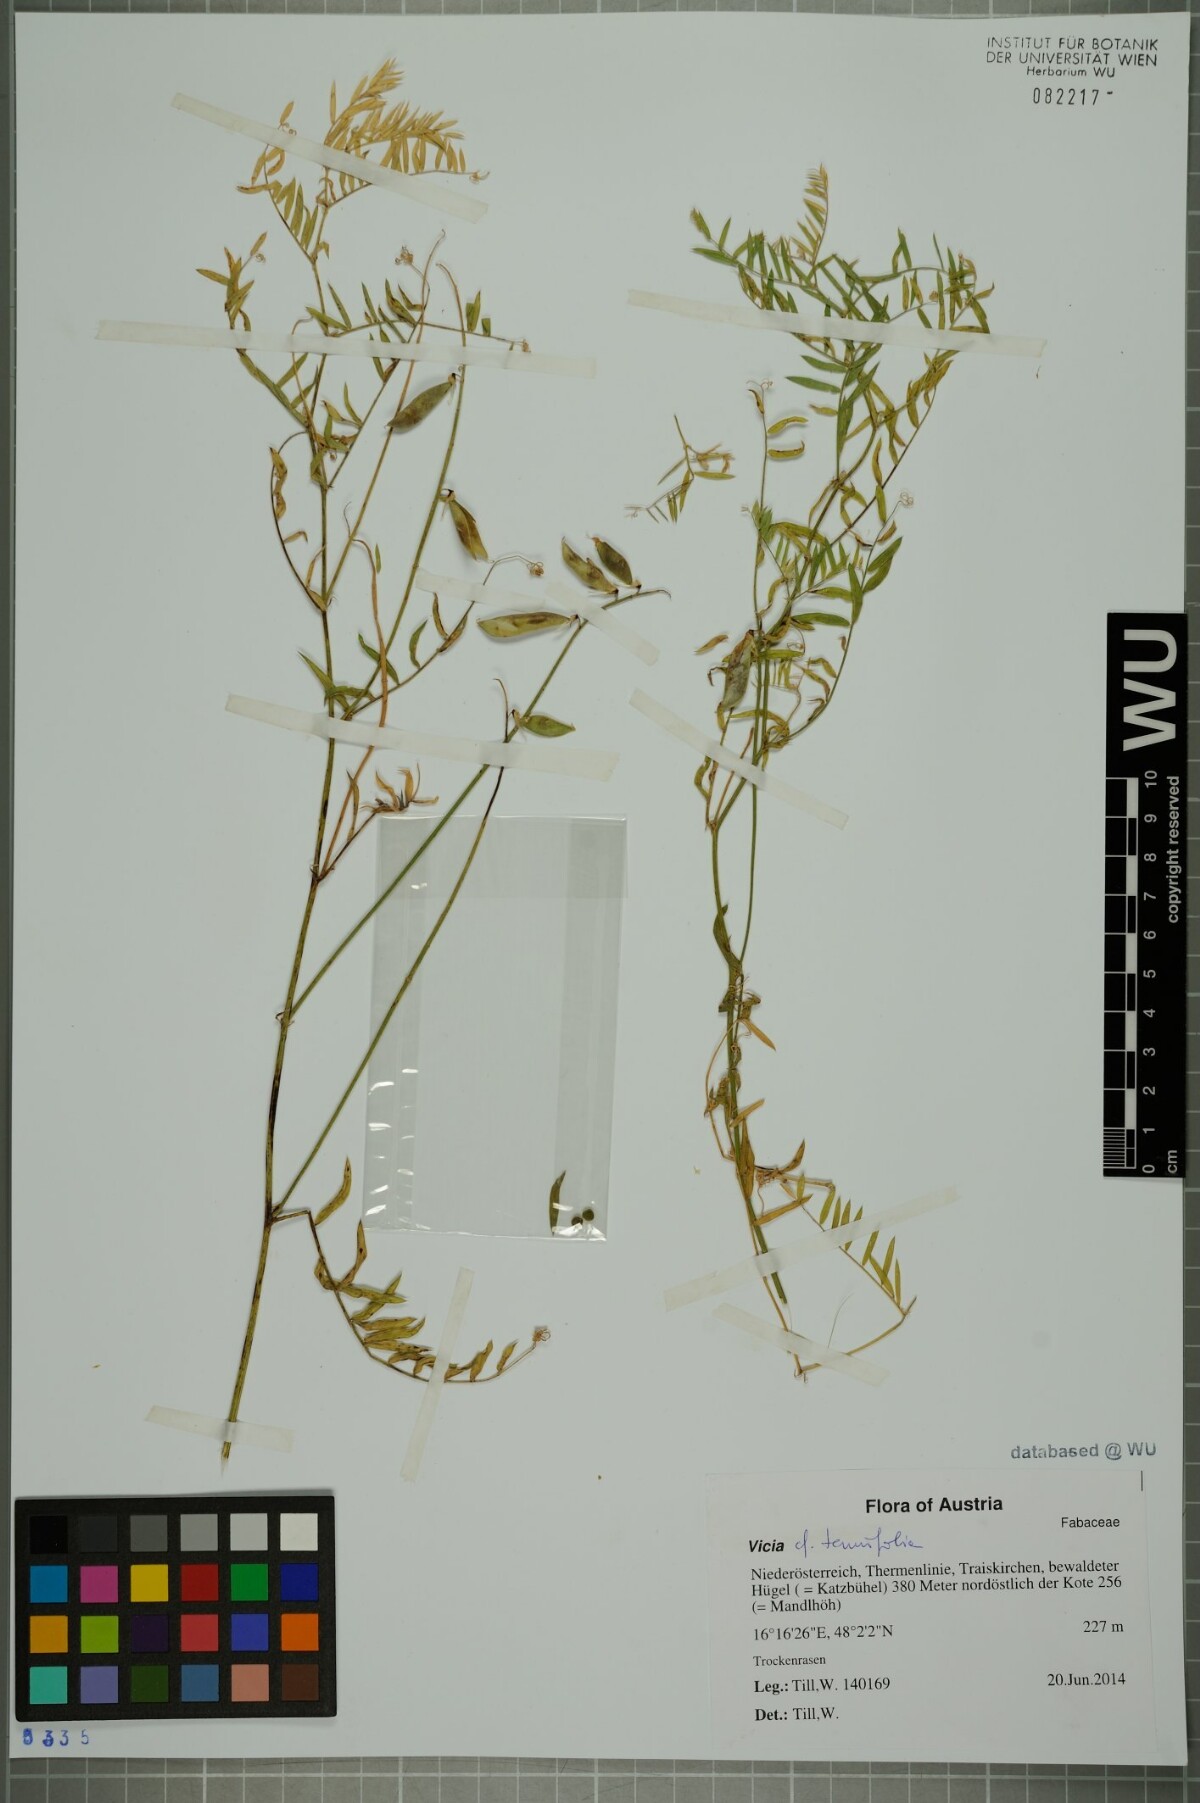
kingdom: Plantae
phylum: Tracheophyta
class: Magnoliopsida
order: Fabales
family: Fabaceae
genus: Vicia
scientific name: Vicia tenuifolia
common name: Fine-leaved vetch
